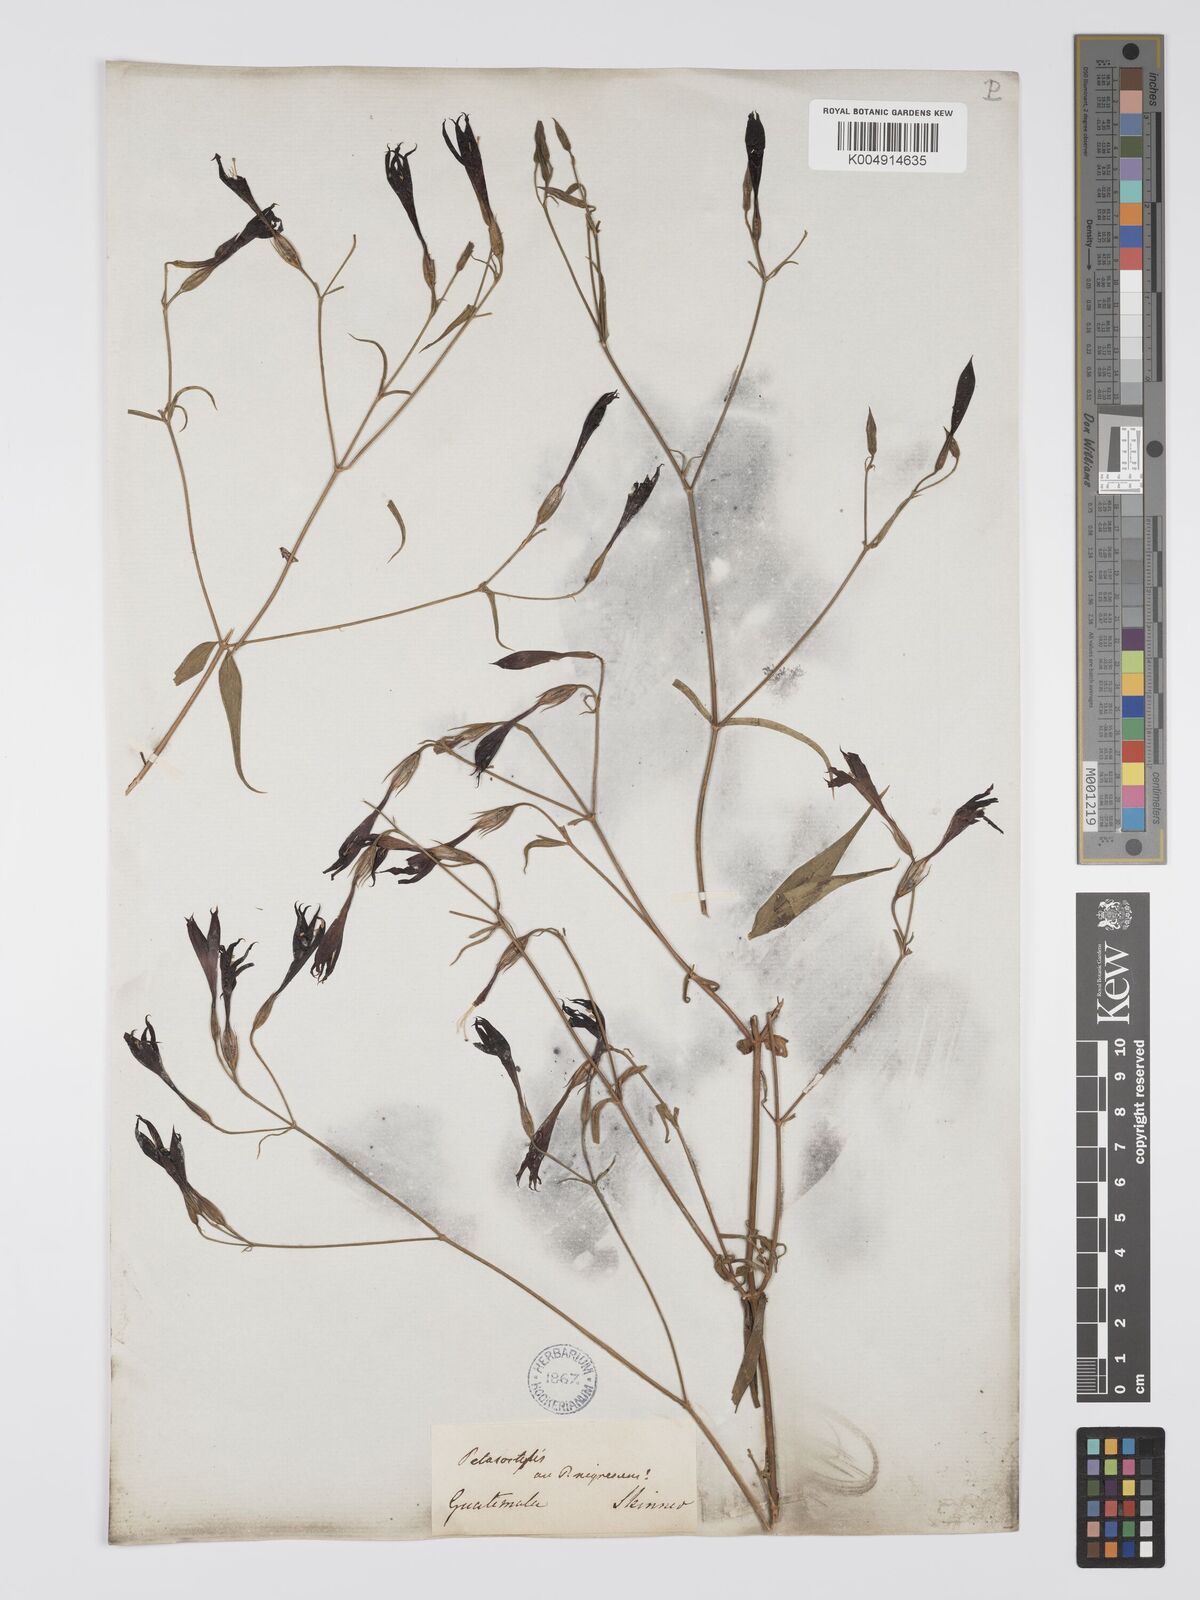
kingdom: Plantae
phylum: Tracheophyta
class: Magnoliopsida
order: Gentianales
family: Gentianaceae
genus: Lisianthius
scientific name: Lisianthius cuspidatus
